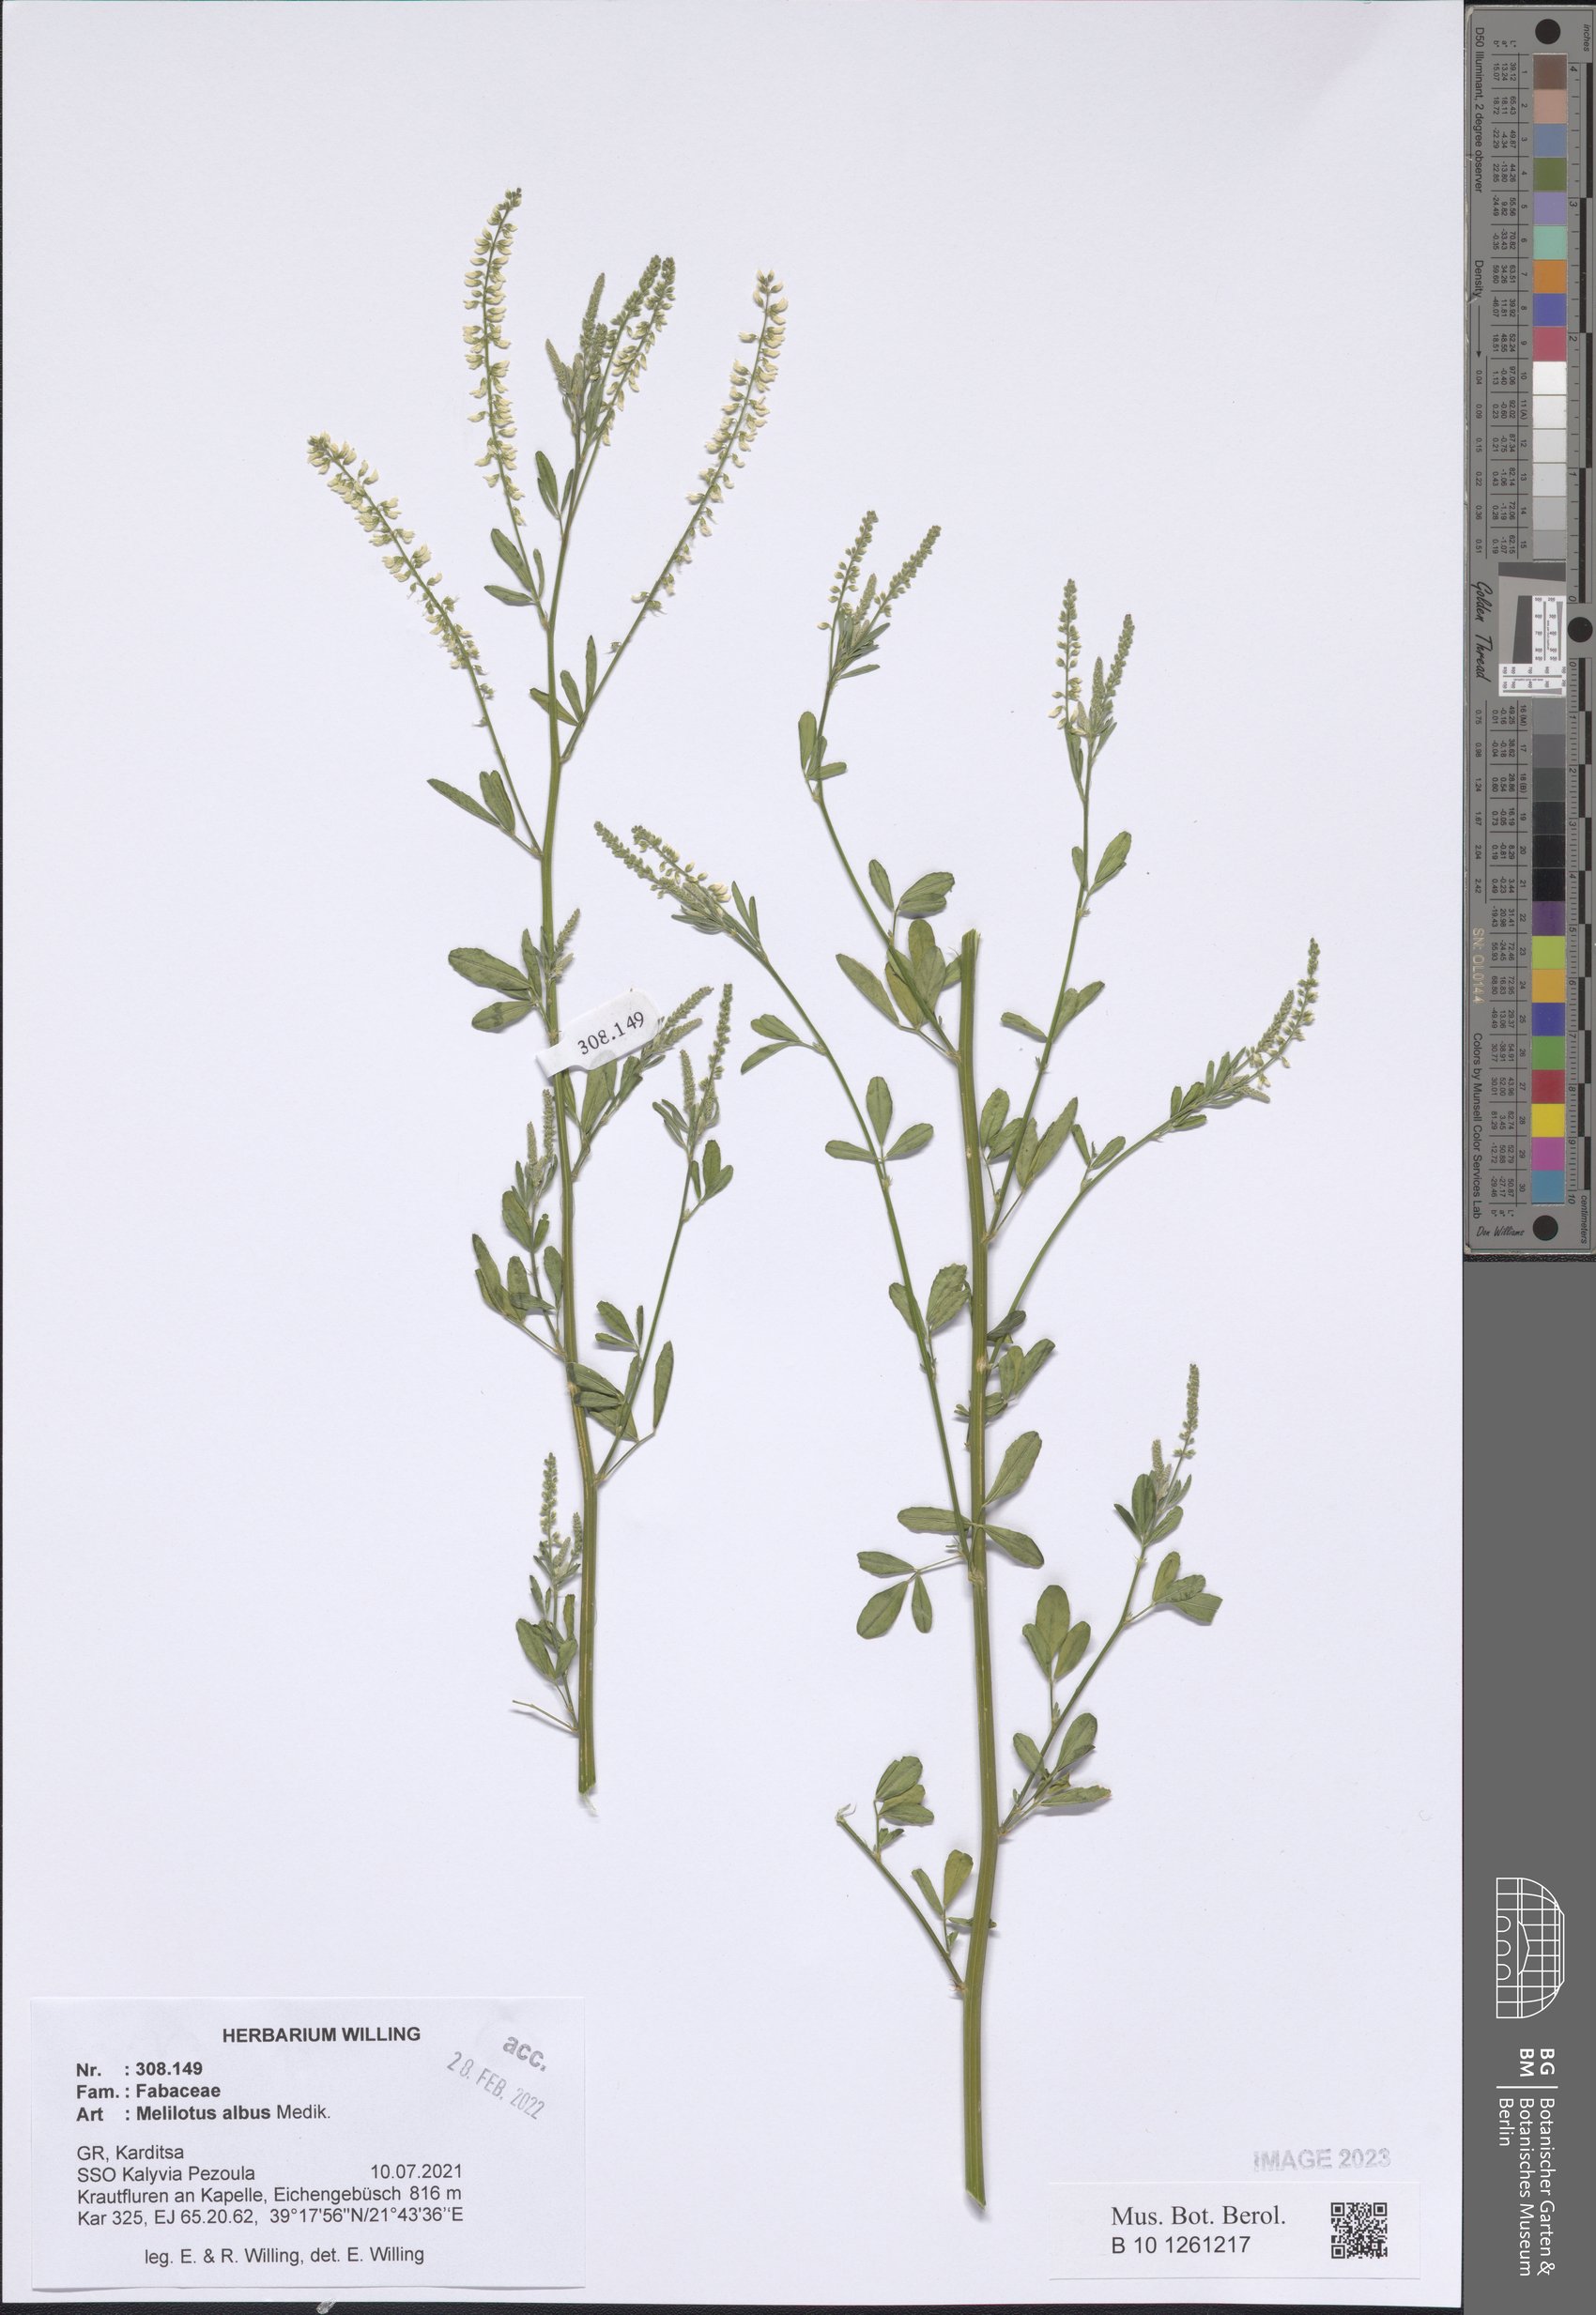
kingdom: Plantae
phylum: Tracheophyta
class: Magnoliopsida
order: Fabales
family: Fabaceae
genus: Melilotus
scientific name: Melilotus albus
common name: White melilot
